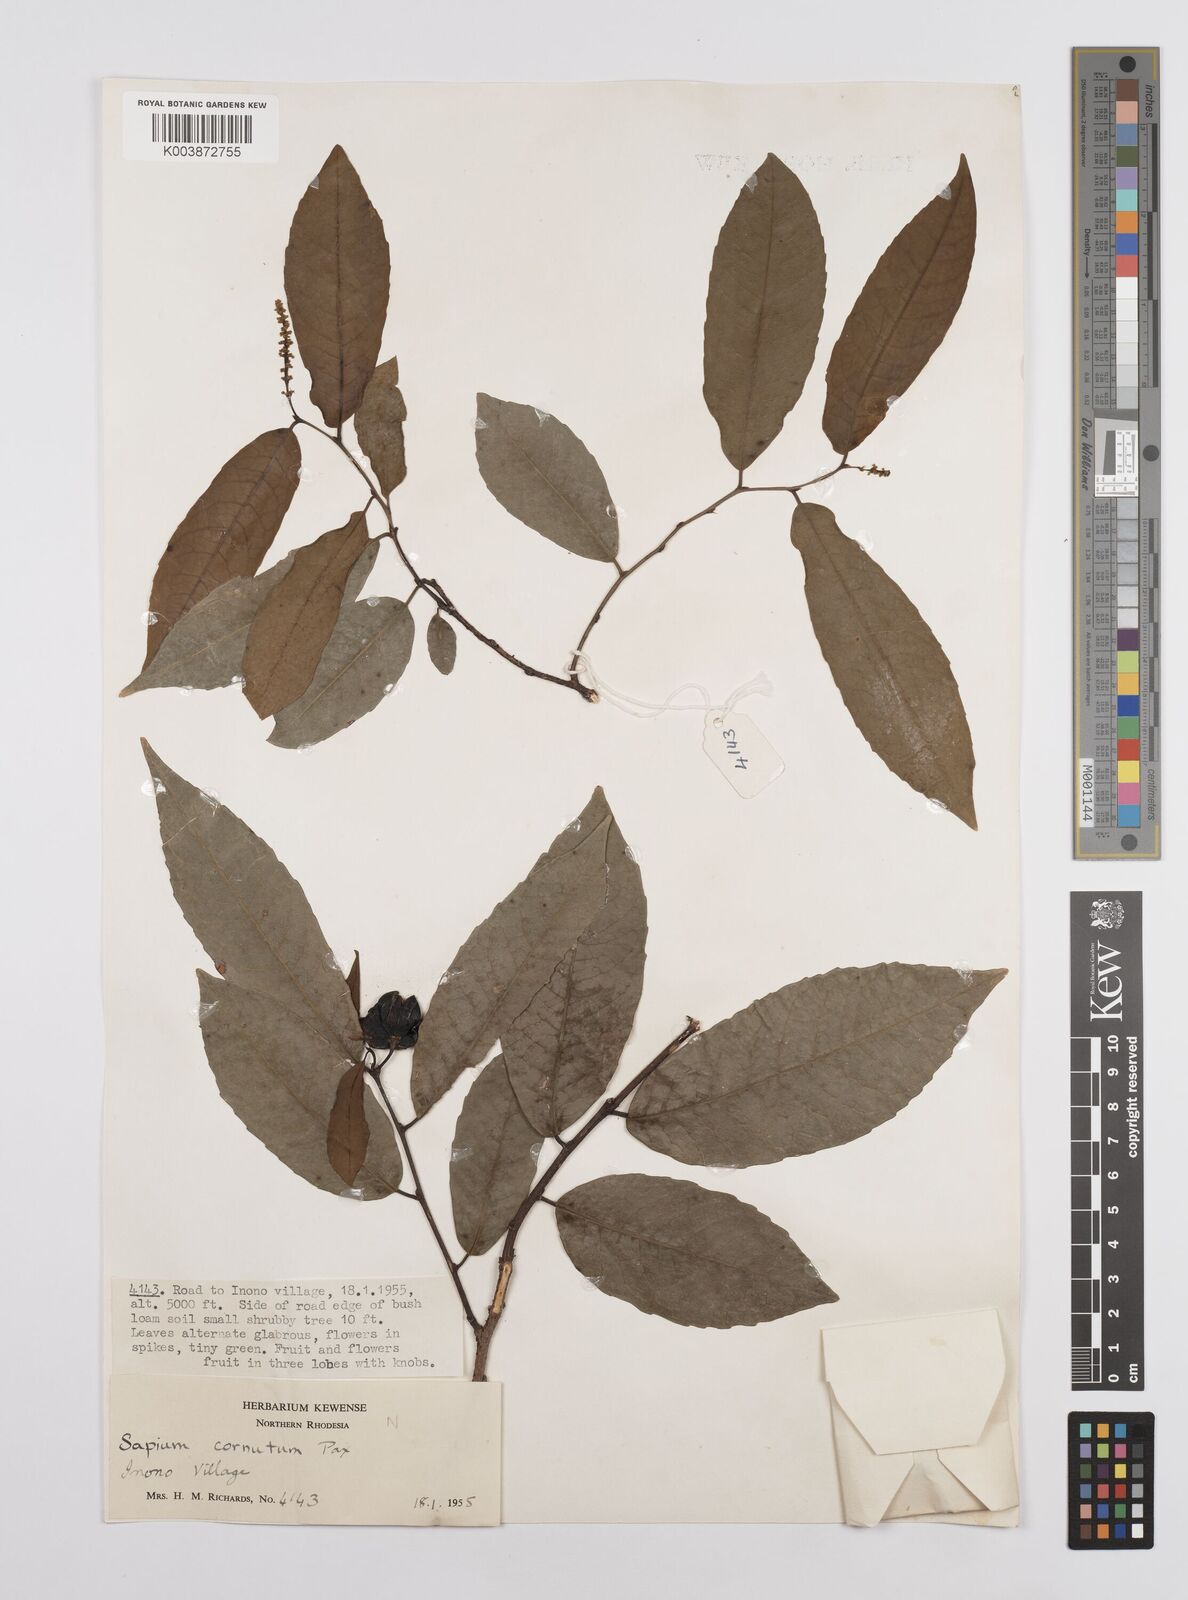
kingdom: Plantae
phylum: Tracheophyta
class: Magnoliopsida
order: Malpighiales
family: Euphorbiaceae
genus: Sclerocroton
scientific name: Sclerocroton schmitzii
